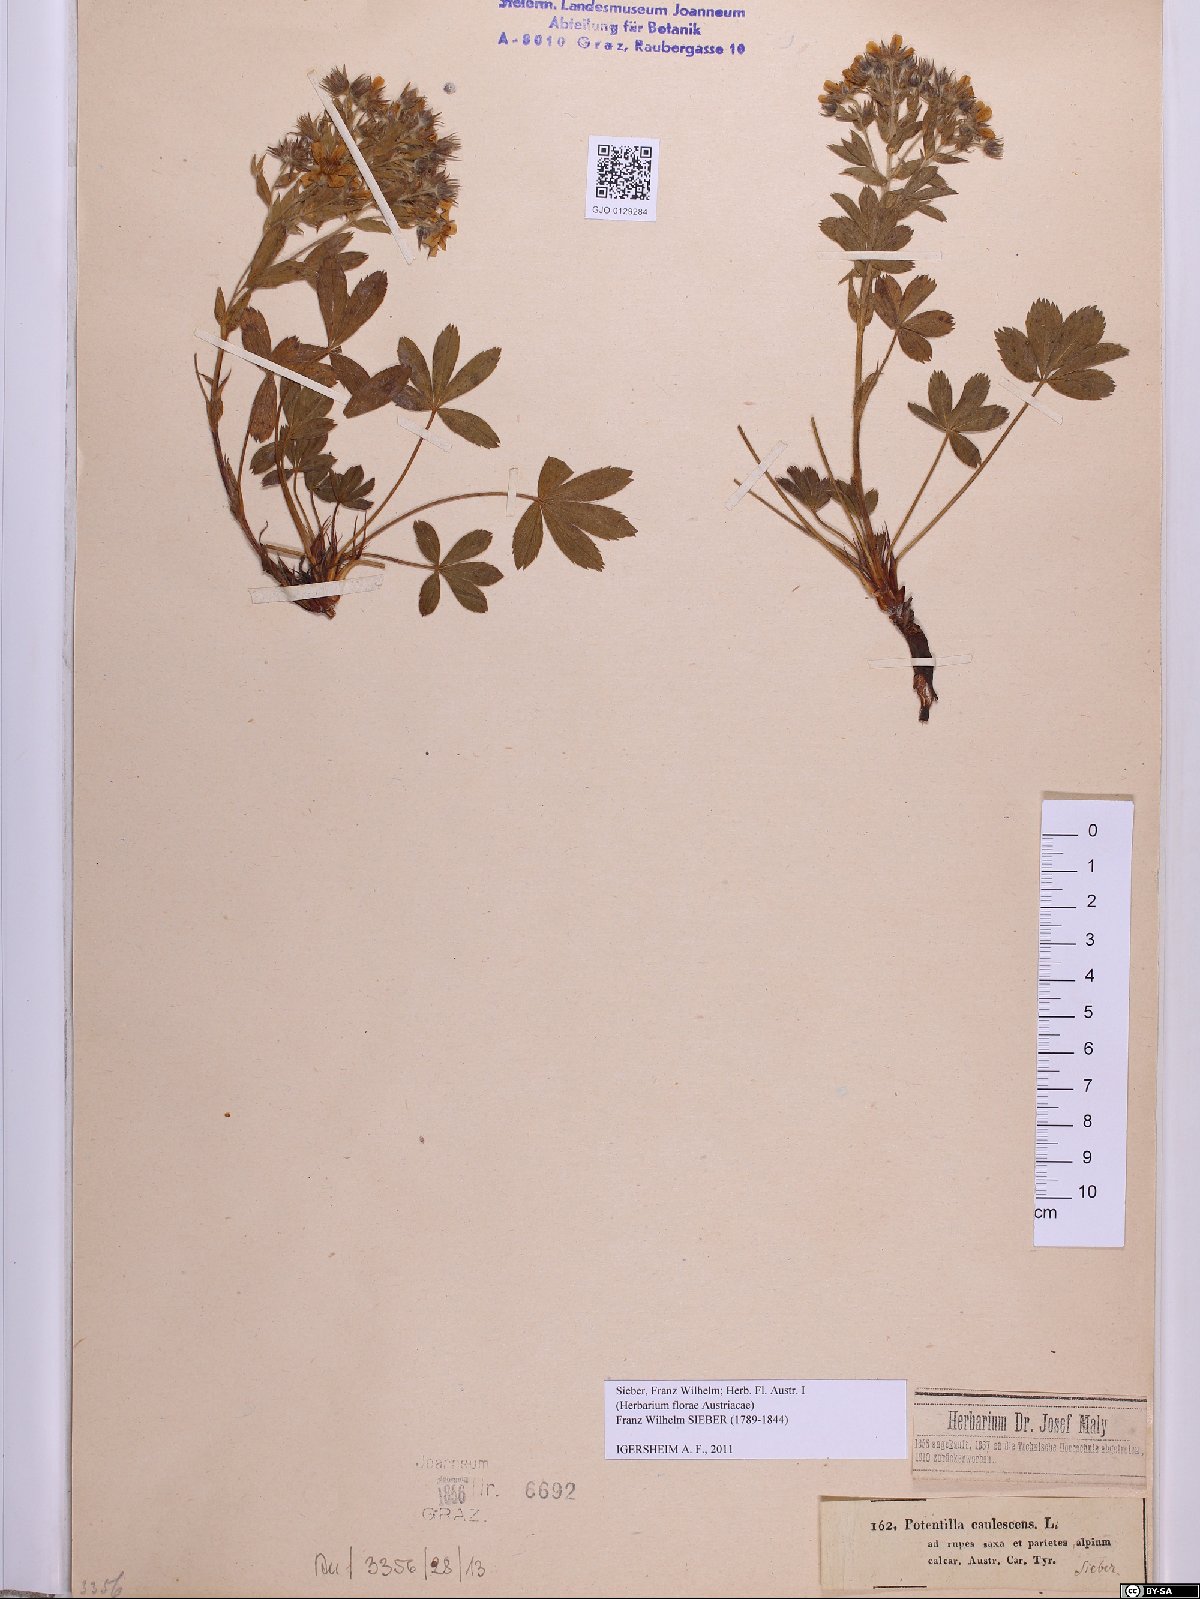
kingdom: Plantae
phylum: Tracheophyta
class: Magnoliopsida
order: Rosales
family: Rosaceae
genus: Potentilla
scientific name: Potentilla caulescens
